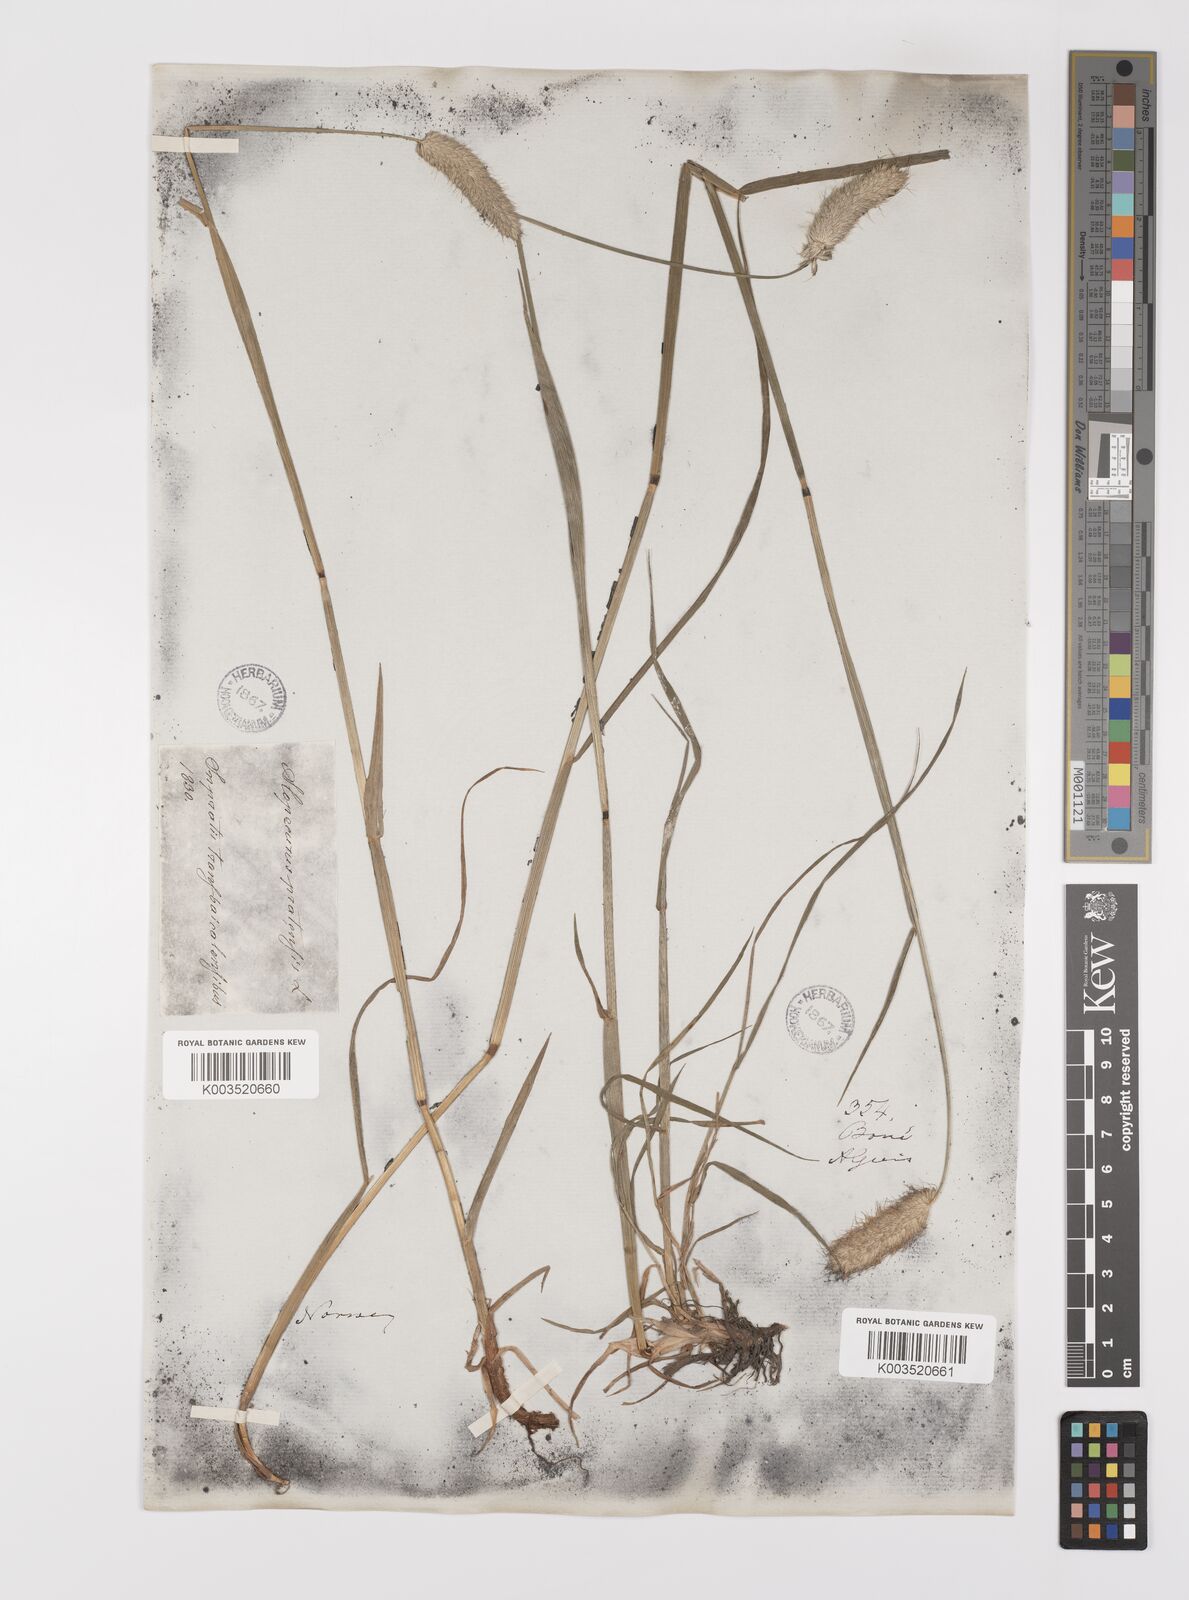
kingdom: Plantae
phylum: Tracheophyta
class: Liliopsida
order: Poales
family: Poaceae
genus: Alopecurus
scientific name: Alopecurus pratensis
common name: Meadow foxtail
